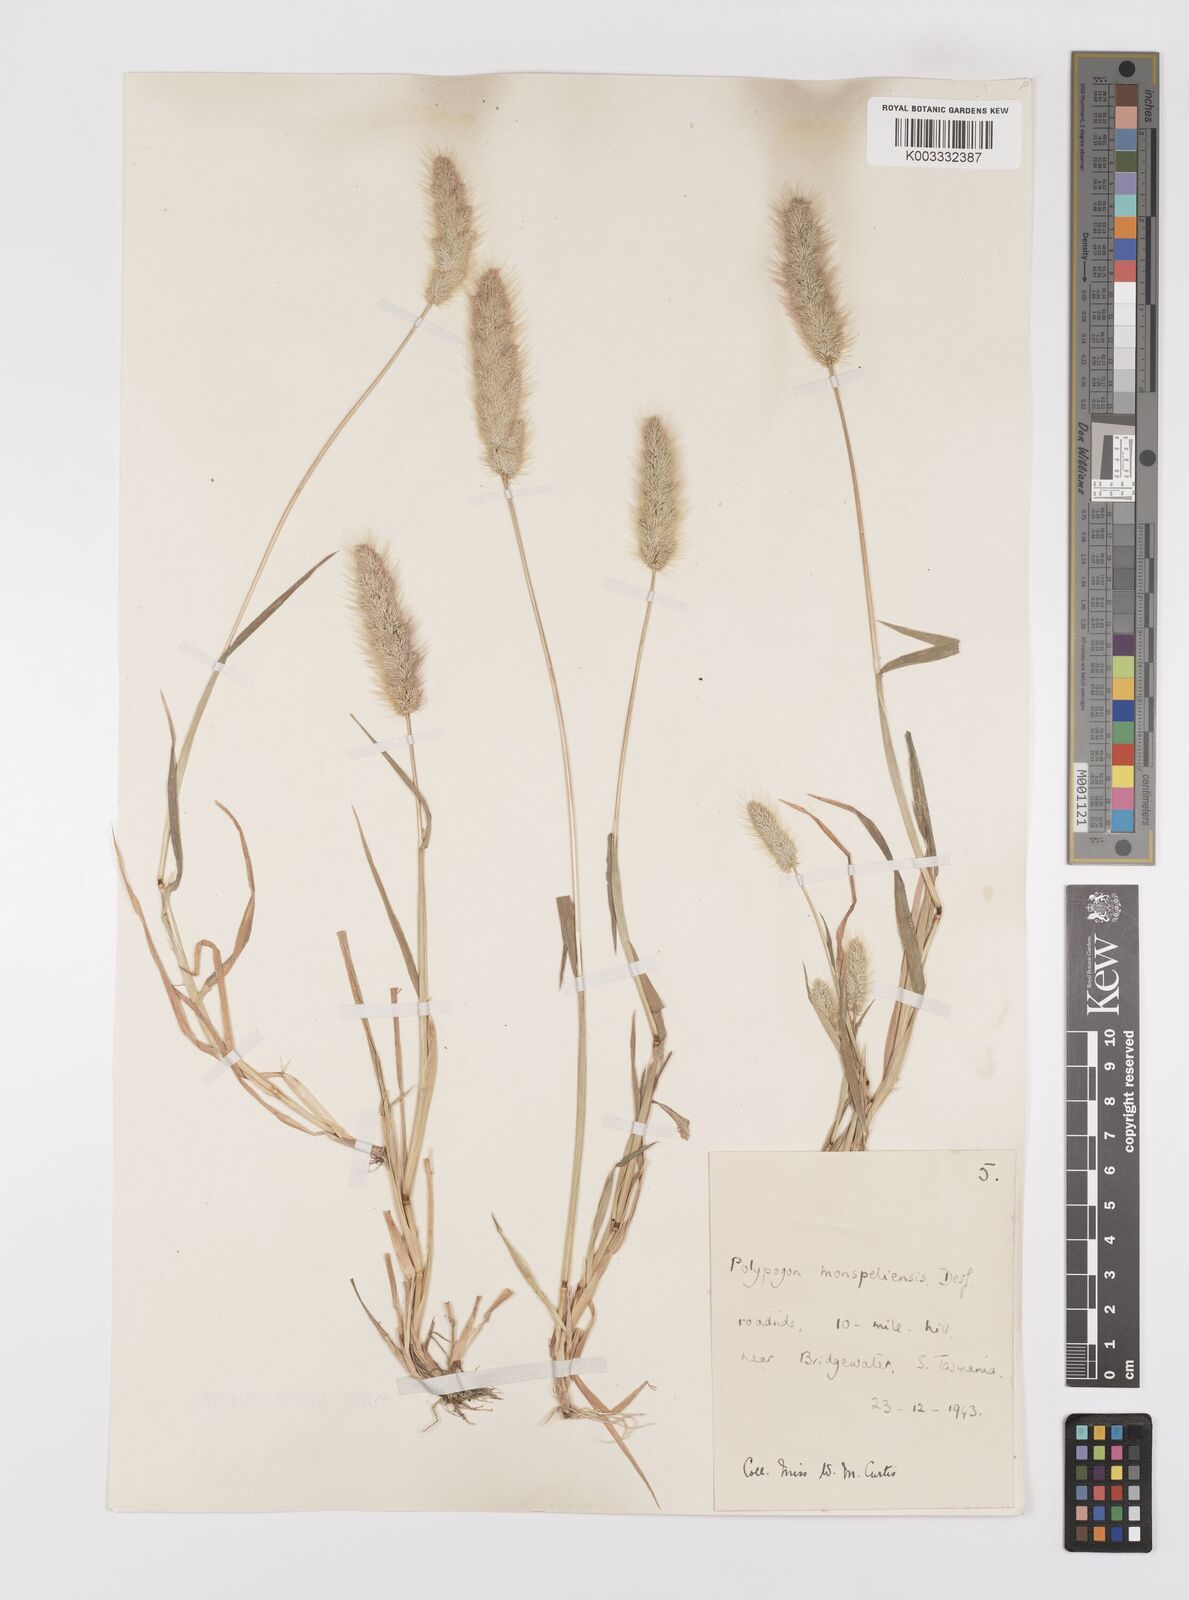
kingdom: Plantae
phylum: Tracheophyta
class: Liliopsida
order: Poales
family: Poaceae
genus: Polypogon
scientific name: Polypogon monspeliensis
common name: Annual rabbitsfoot grass
